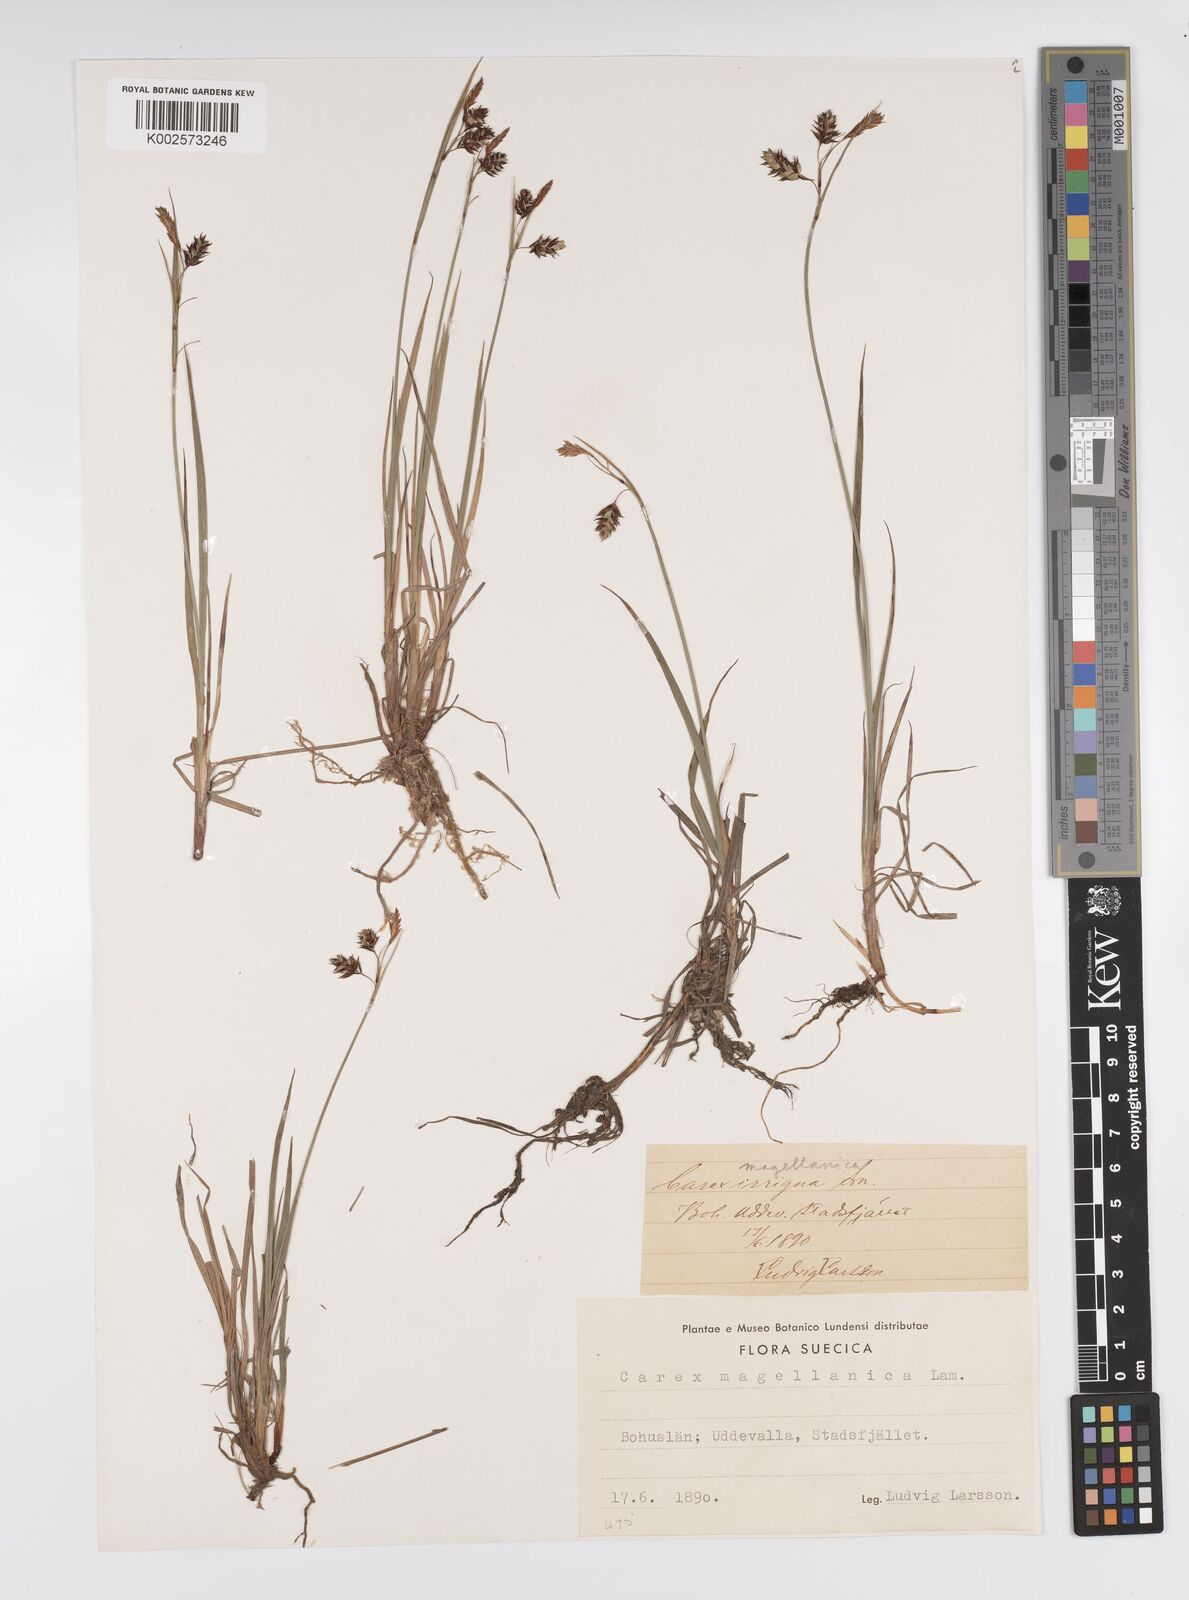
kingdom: Plantae
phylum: Tracheophyta
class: Liliopsida
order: Poales
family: Cyperaceae
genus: Carex
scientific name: Carex magellanica
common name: Bog sedge
